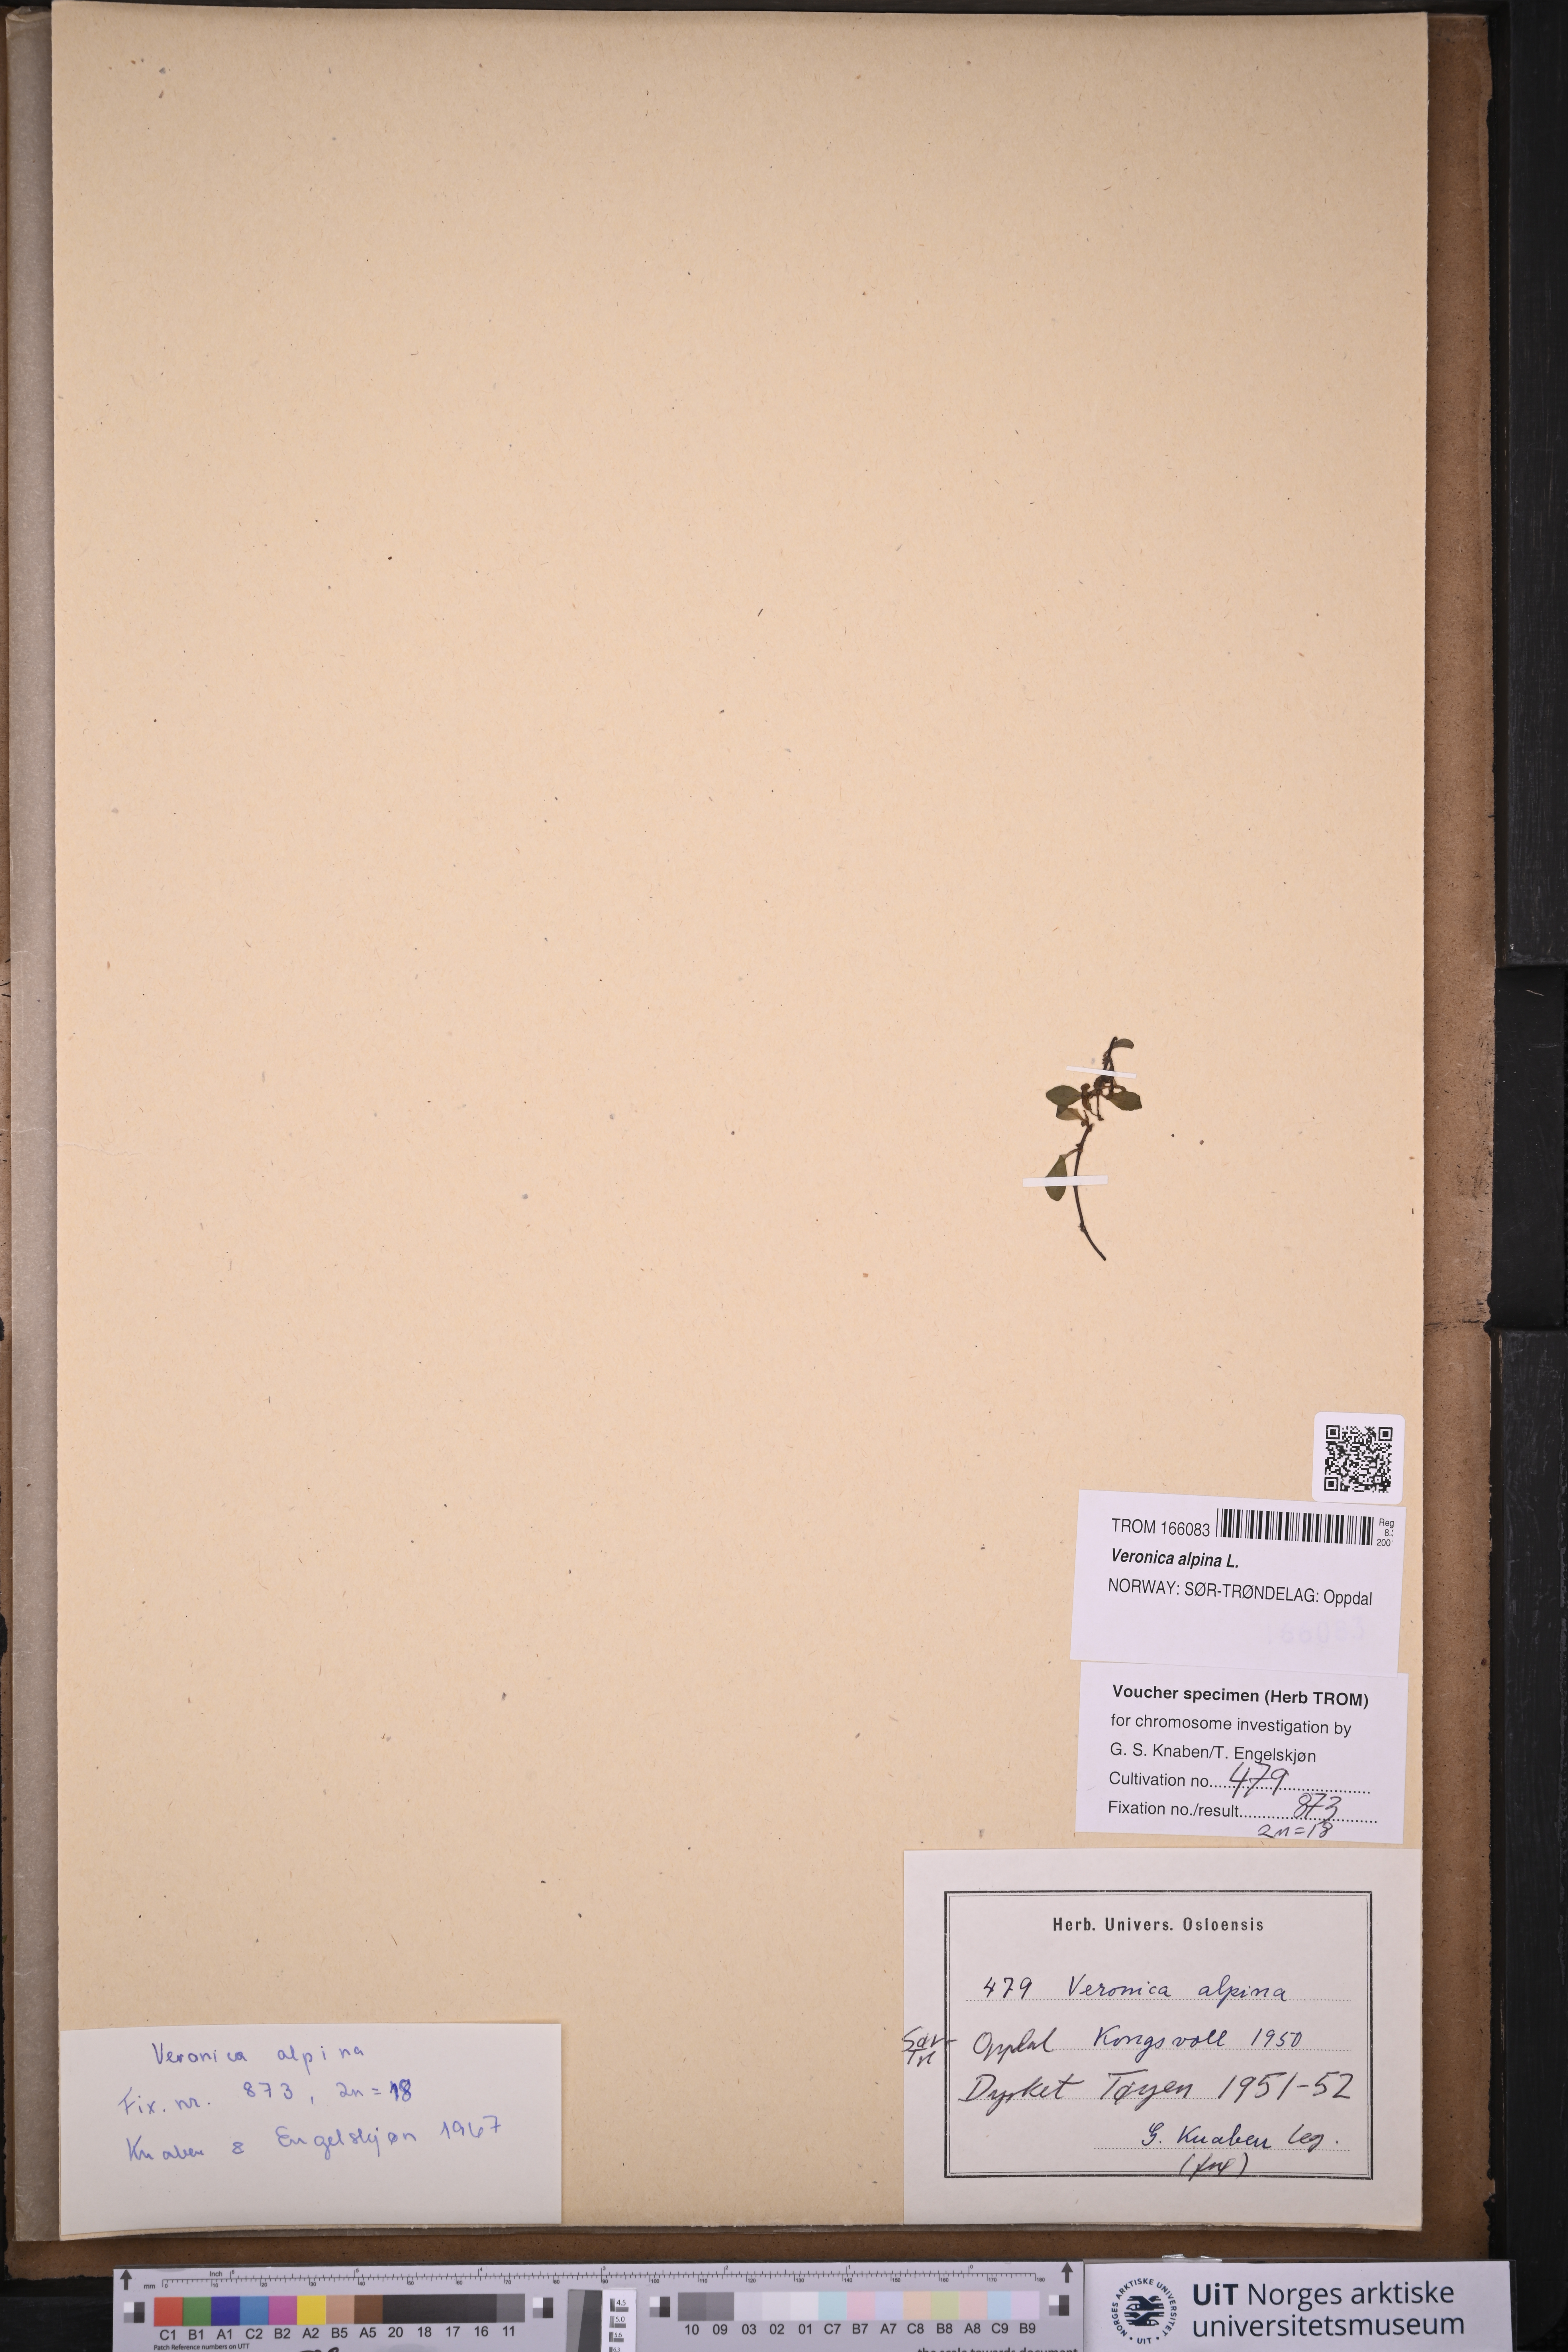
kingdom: Plantae
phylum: Tracheophyta
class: Magnoliopsida
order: Lamiales
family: Plantaginaceae
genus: Veronica
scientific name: Veronica alpina
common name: Alpine speedwell
